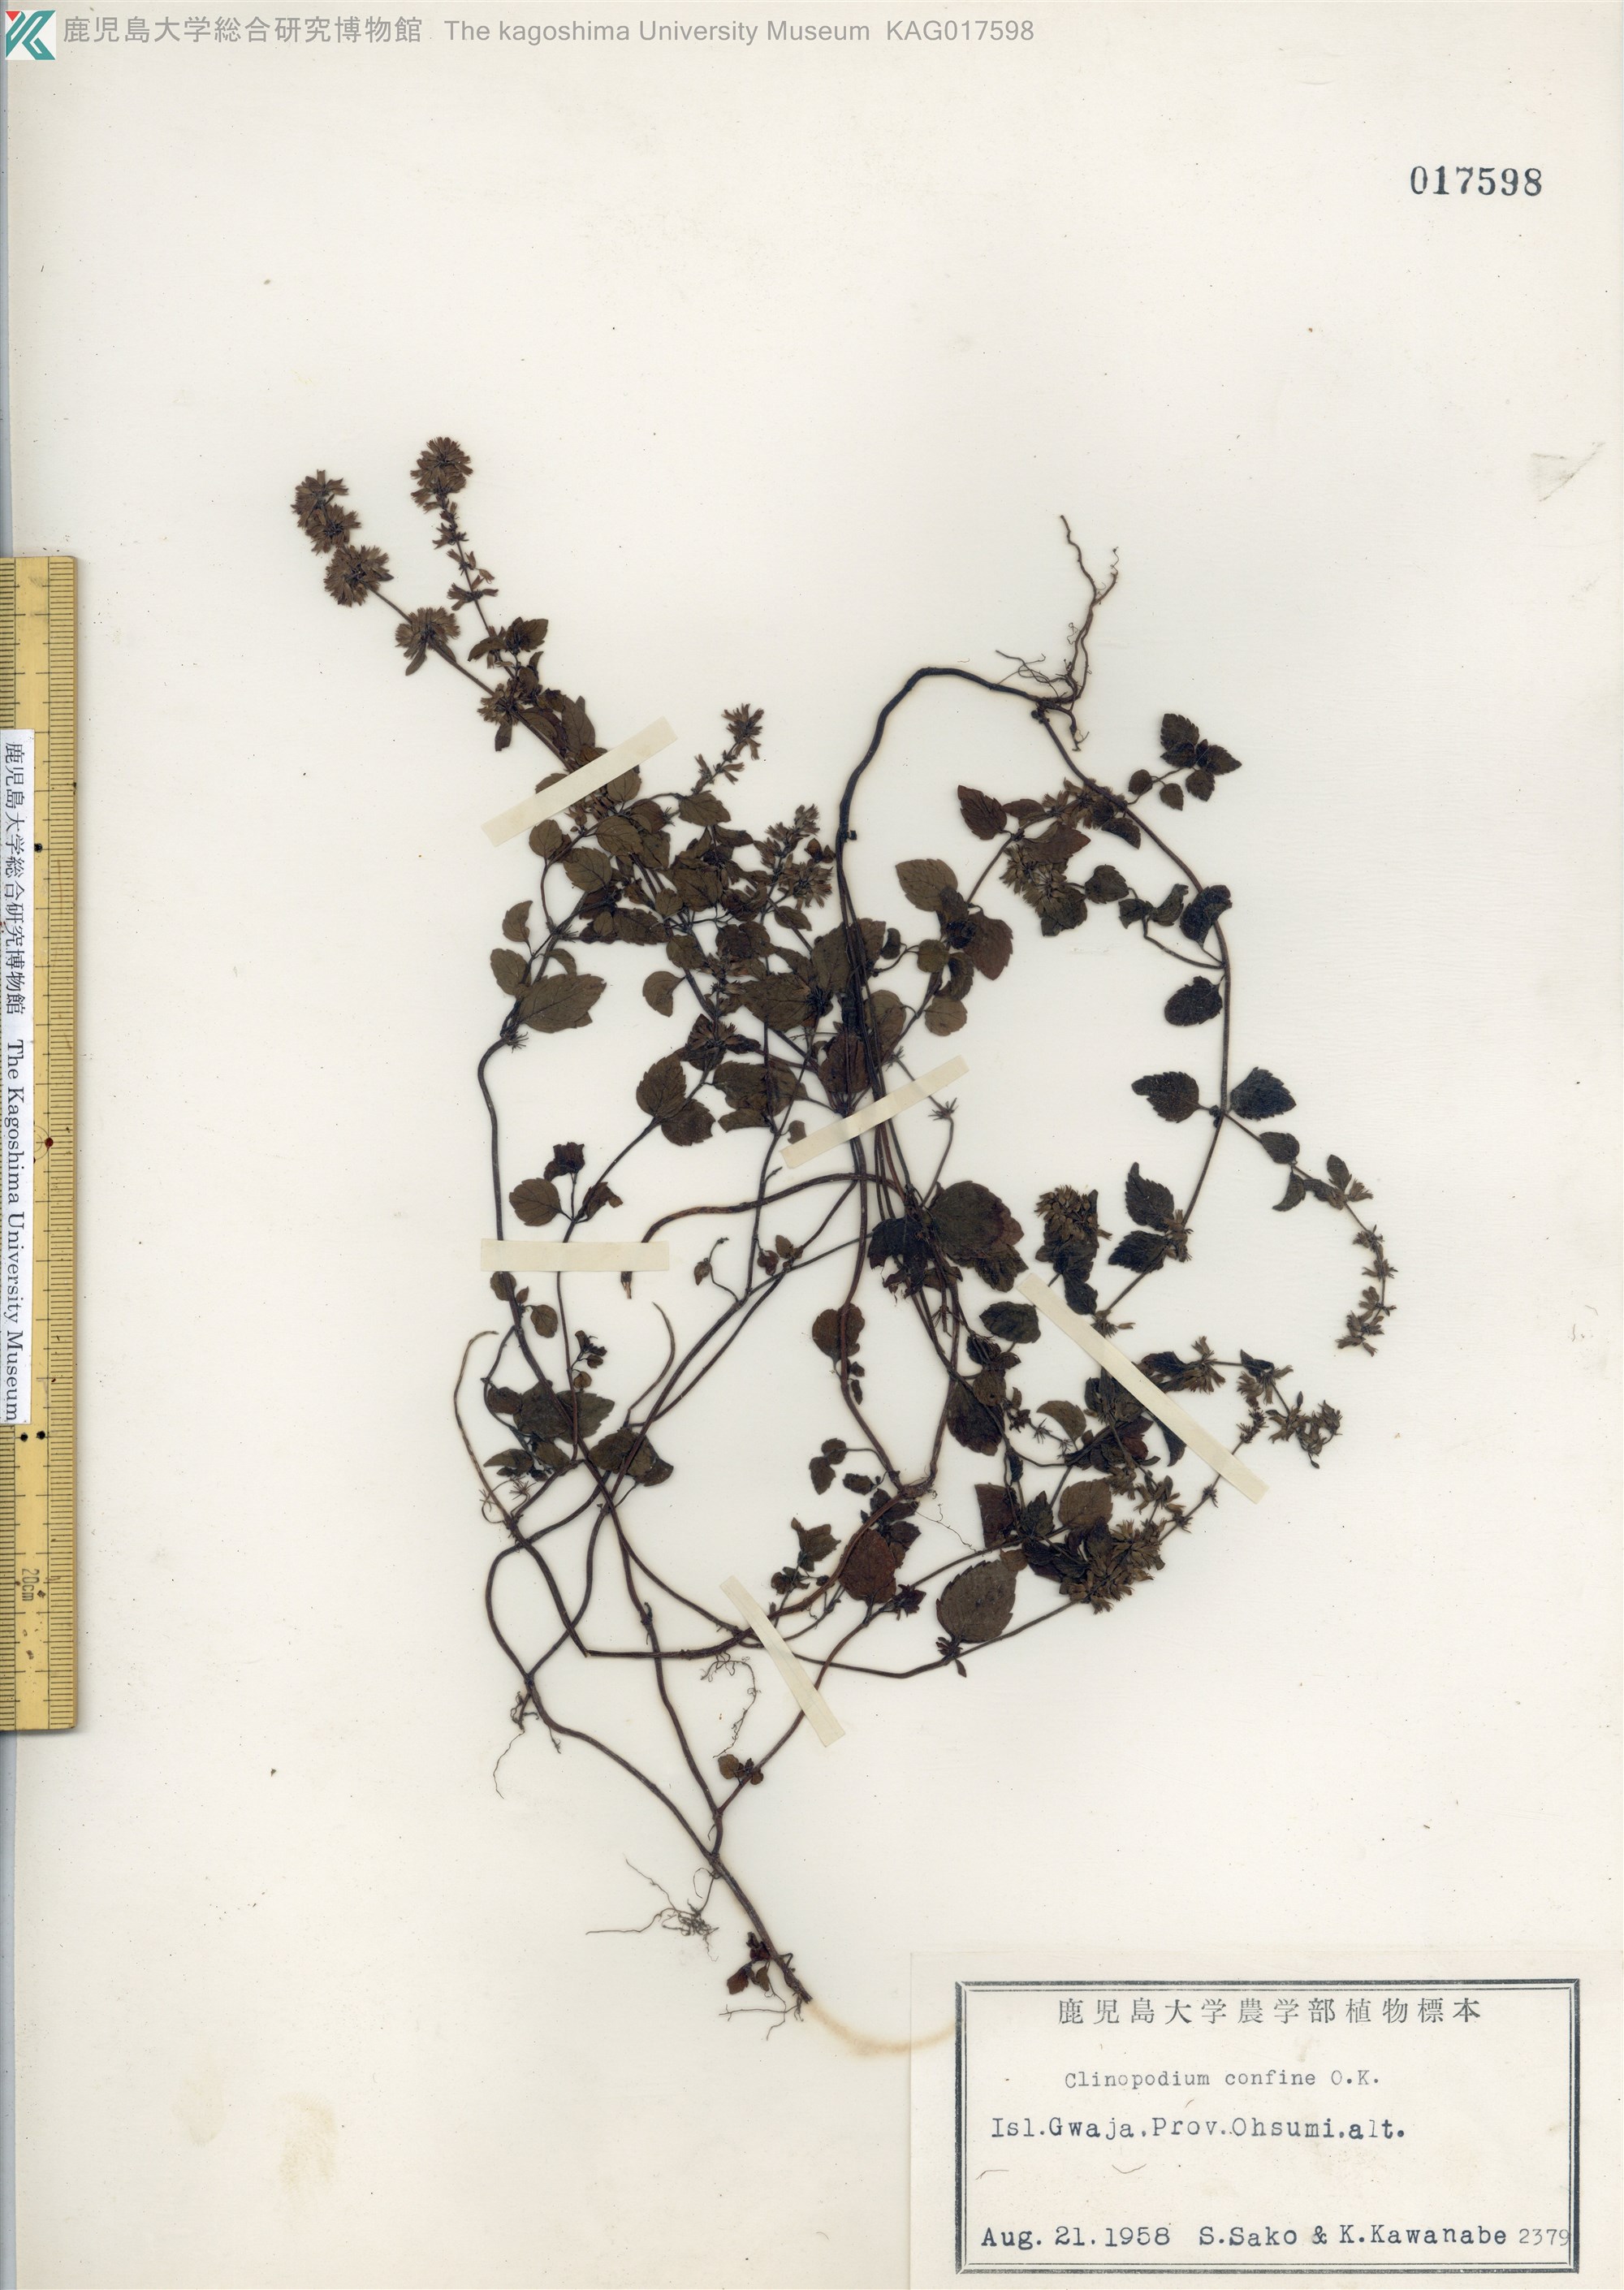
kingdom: Plantae
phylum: Tracheophyta
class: Magnoliopsida
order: Lamiales
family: Lamiaceae
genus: Clinopodium
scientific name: Clinopodium gracile
